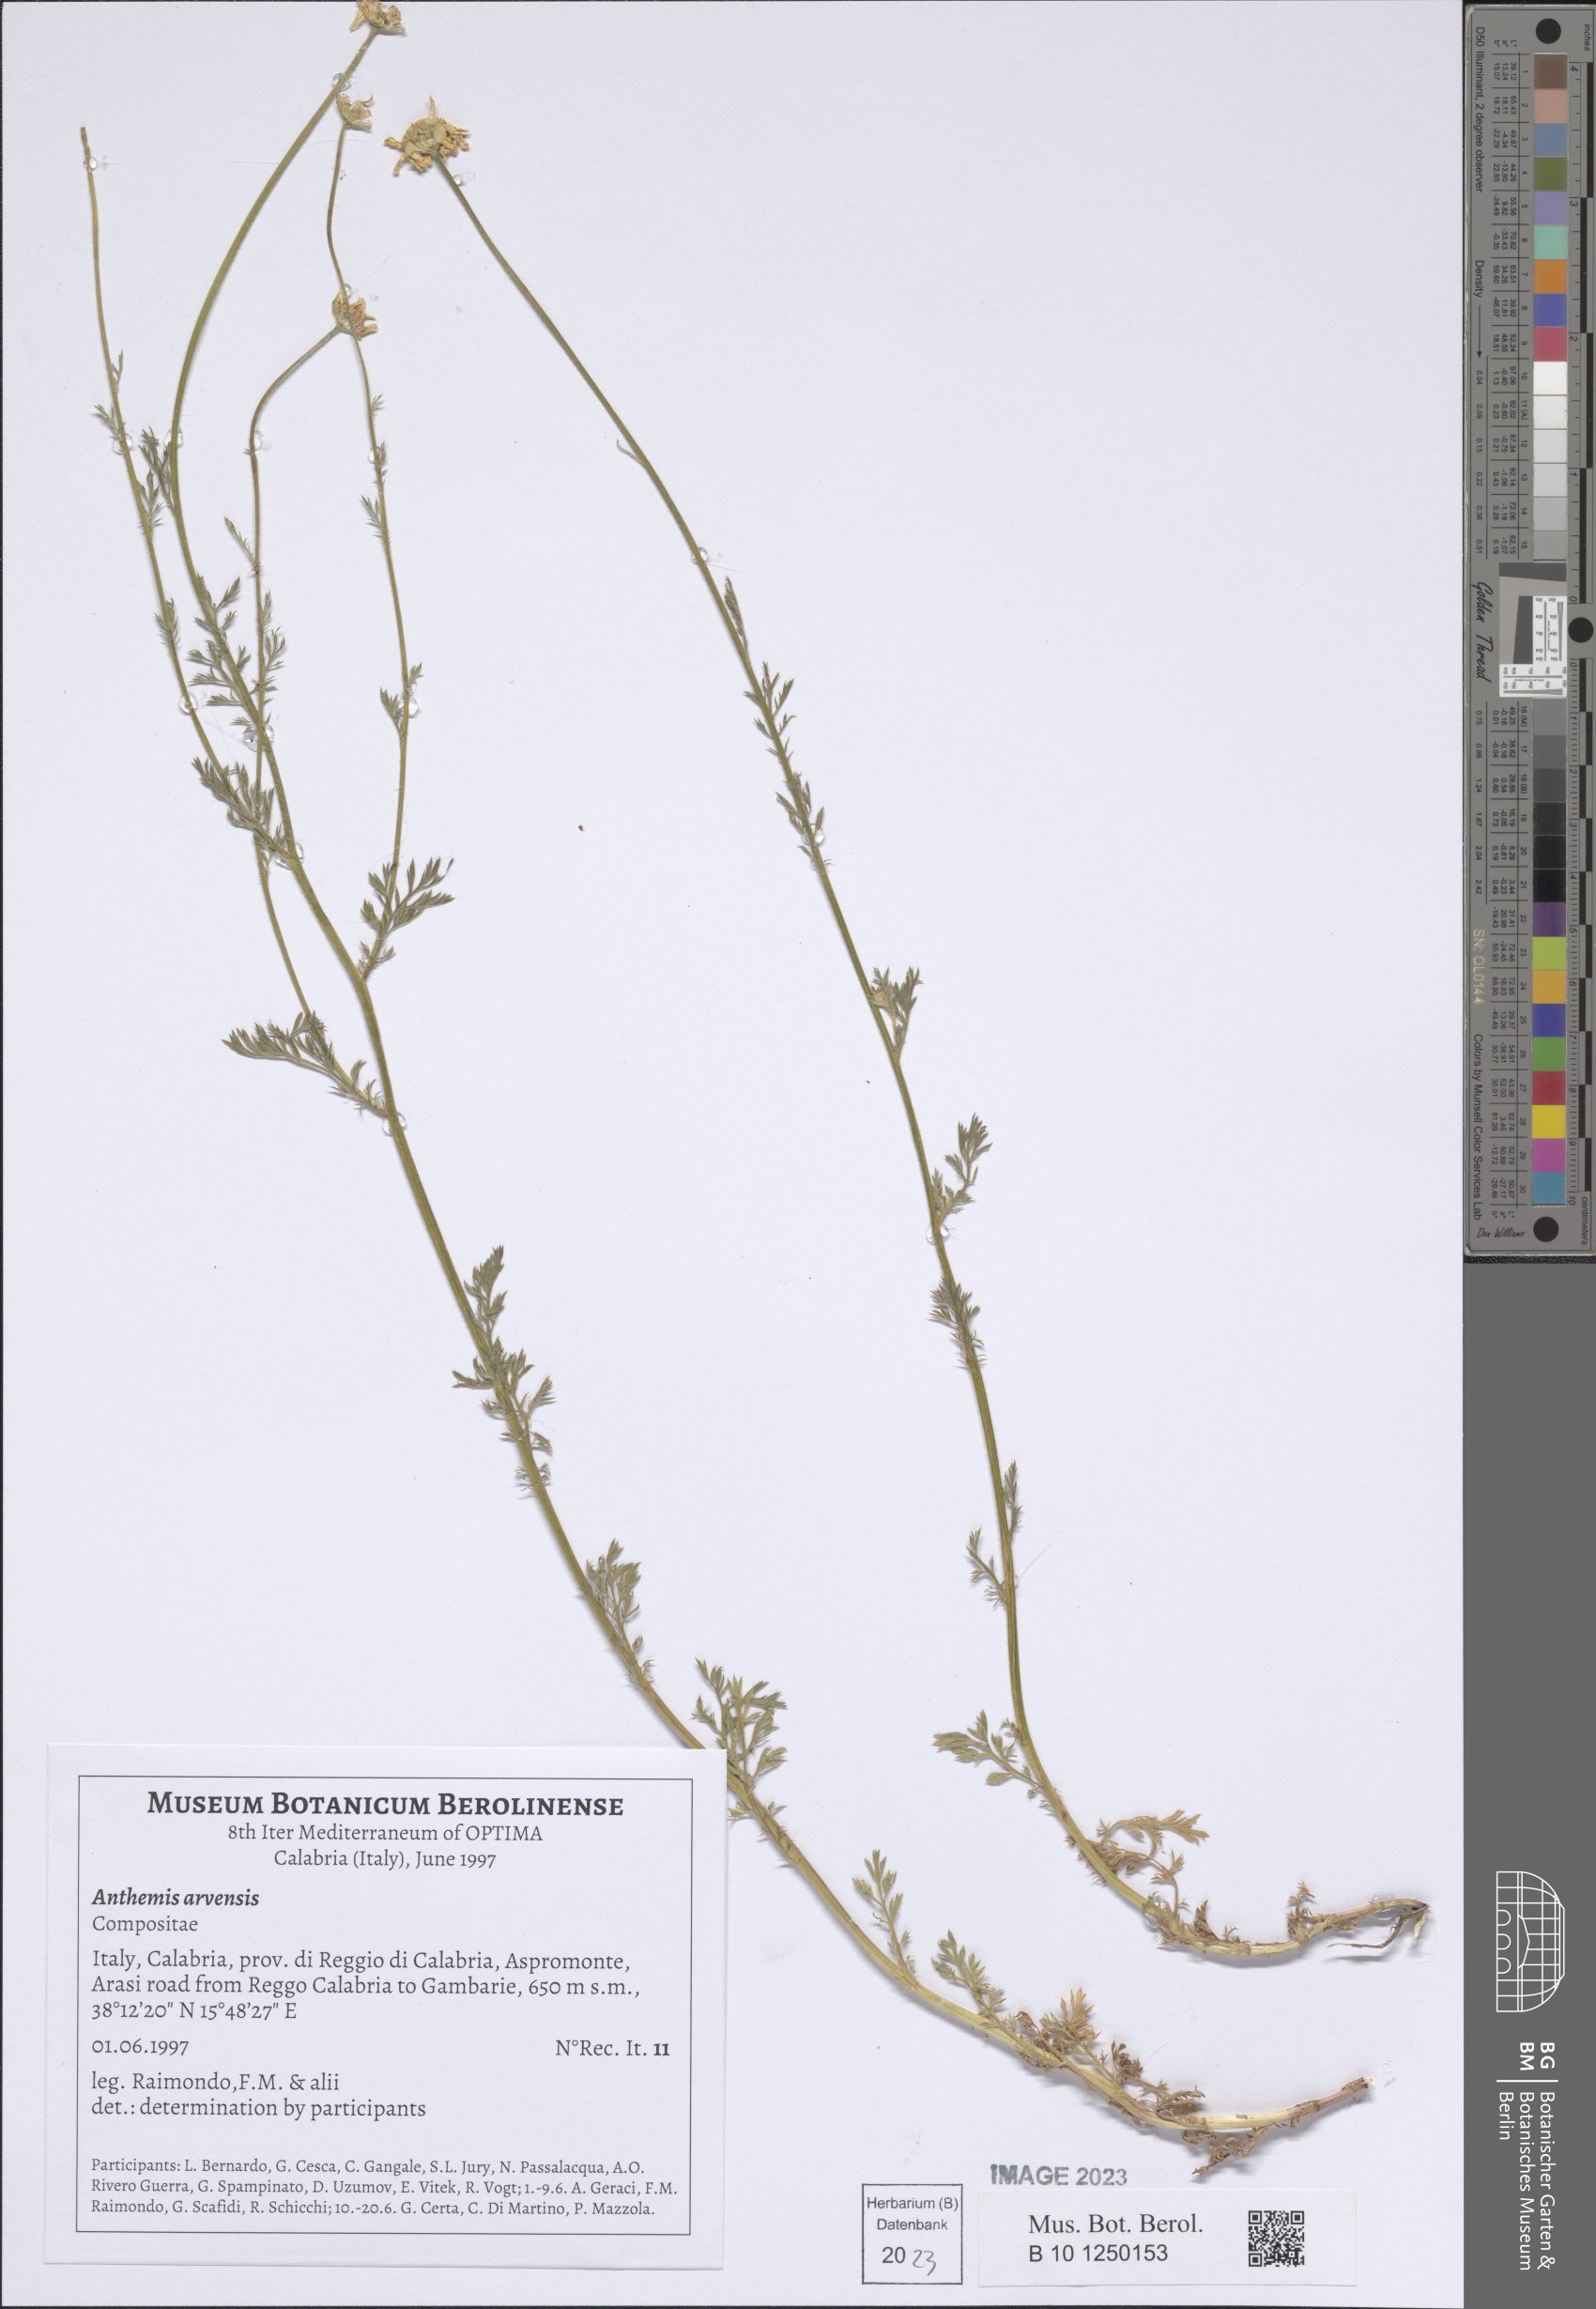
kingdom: Plantae
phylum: Tracheophyta
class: Magnoliopsida
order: Asterales
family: Asteraceae
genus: Anthemis
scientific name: Anthemis arvensis
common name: Corn chamomile
